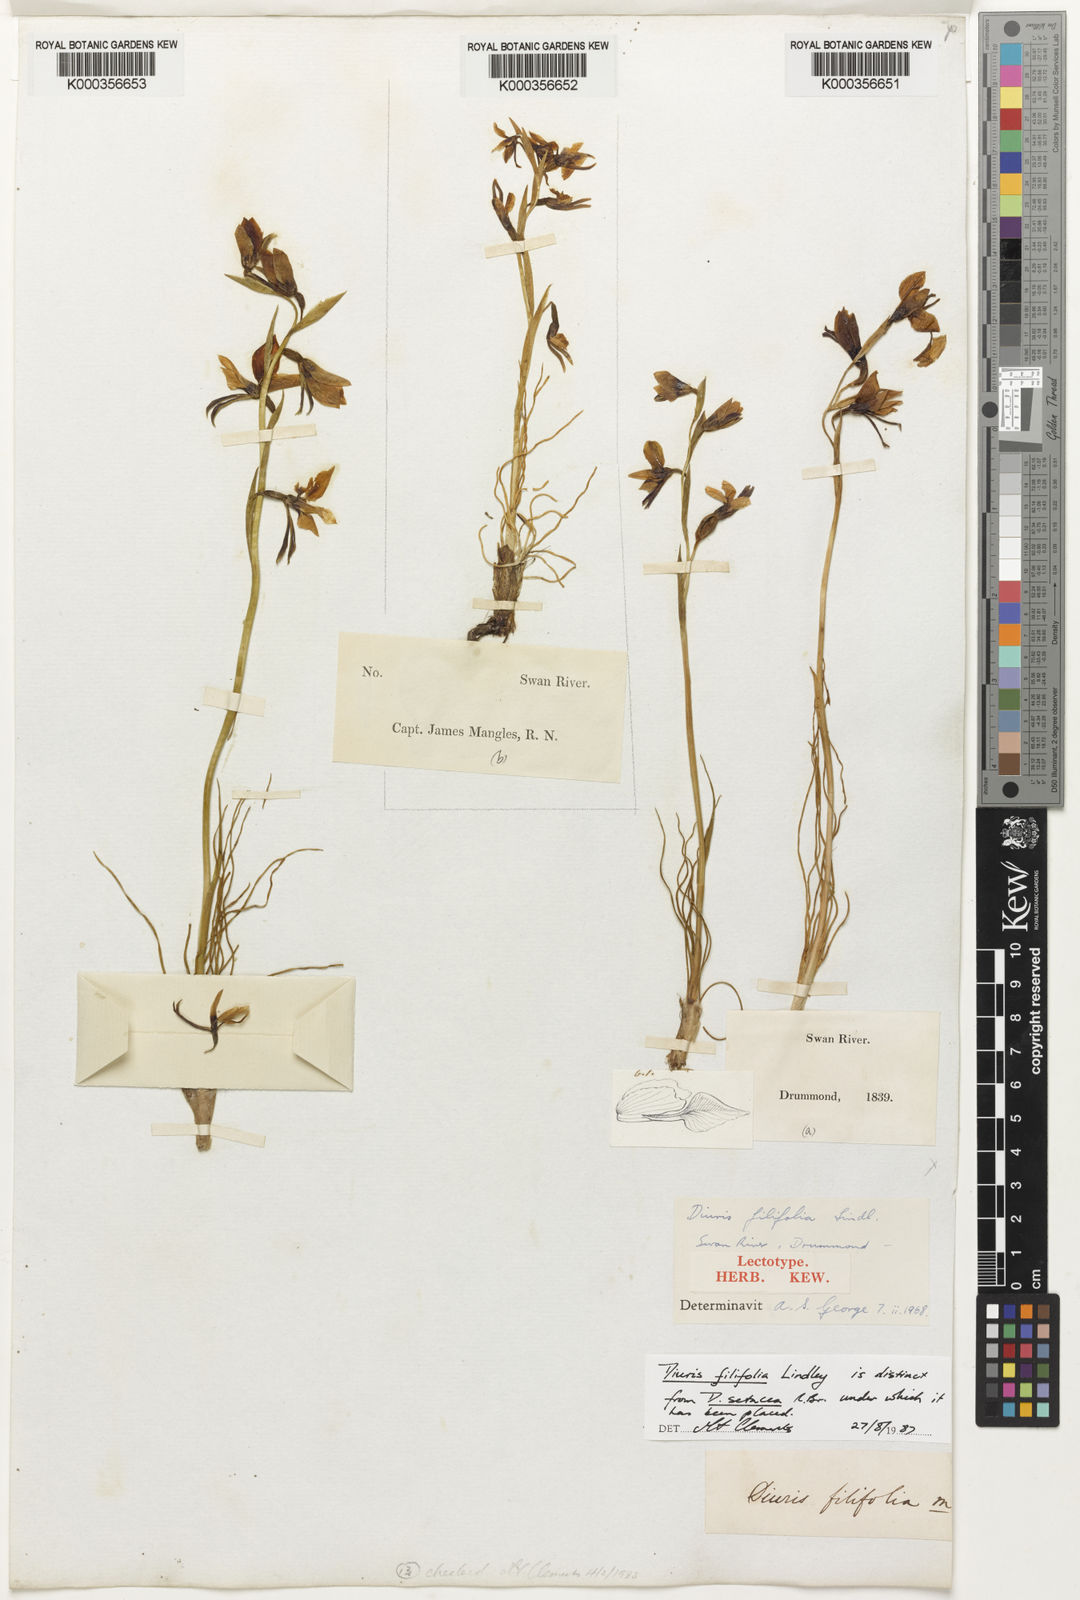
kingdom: Plantae
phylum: Tracheophyta
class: Liliopsida
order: Asparagales
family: Orchidaceae
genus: Diuris
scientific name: Diuris filifolia
